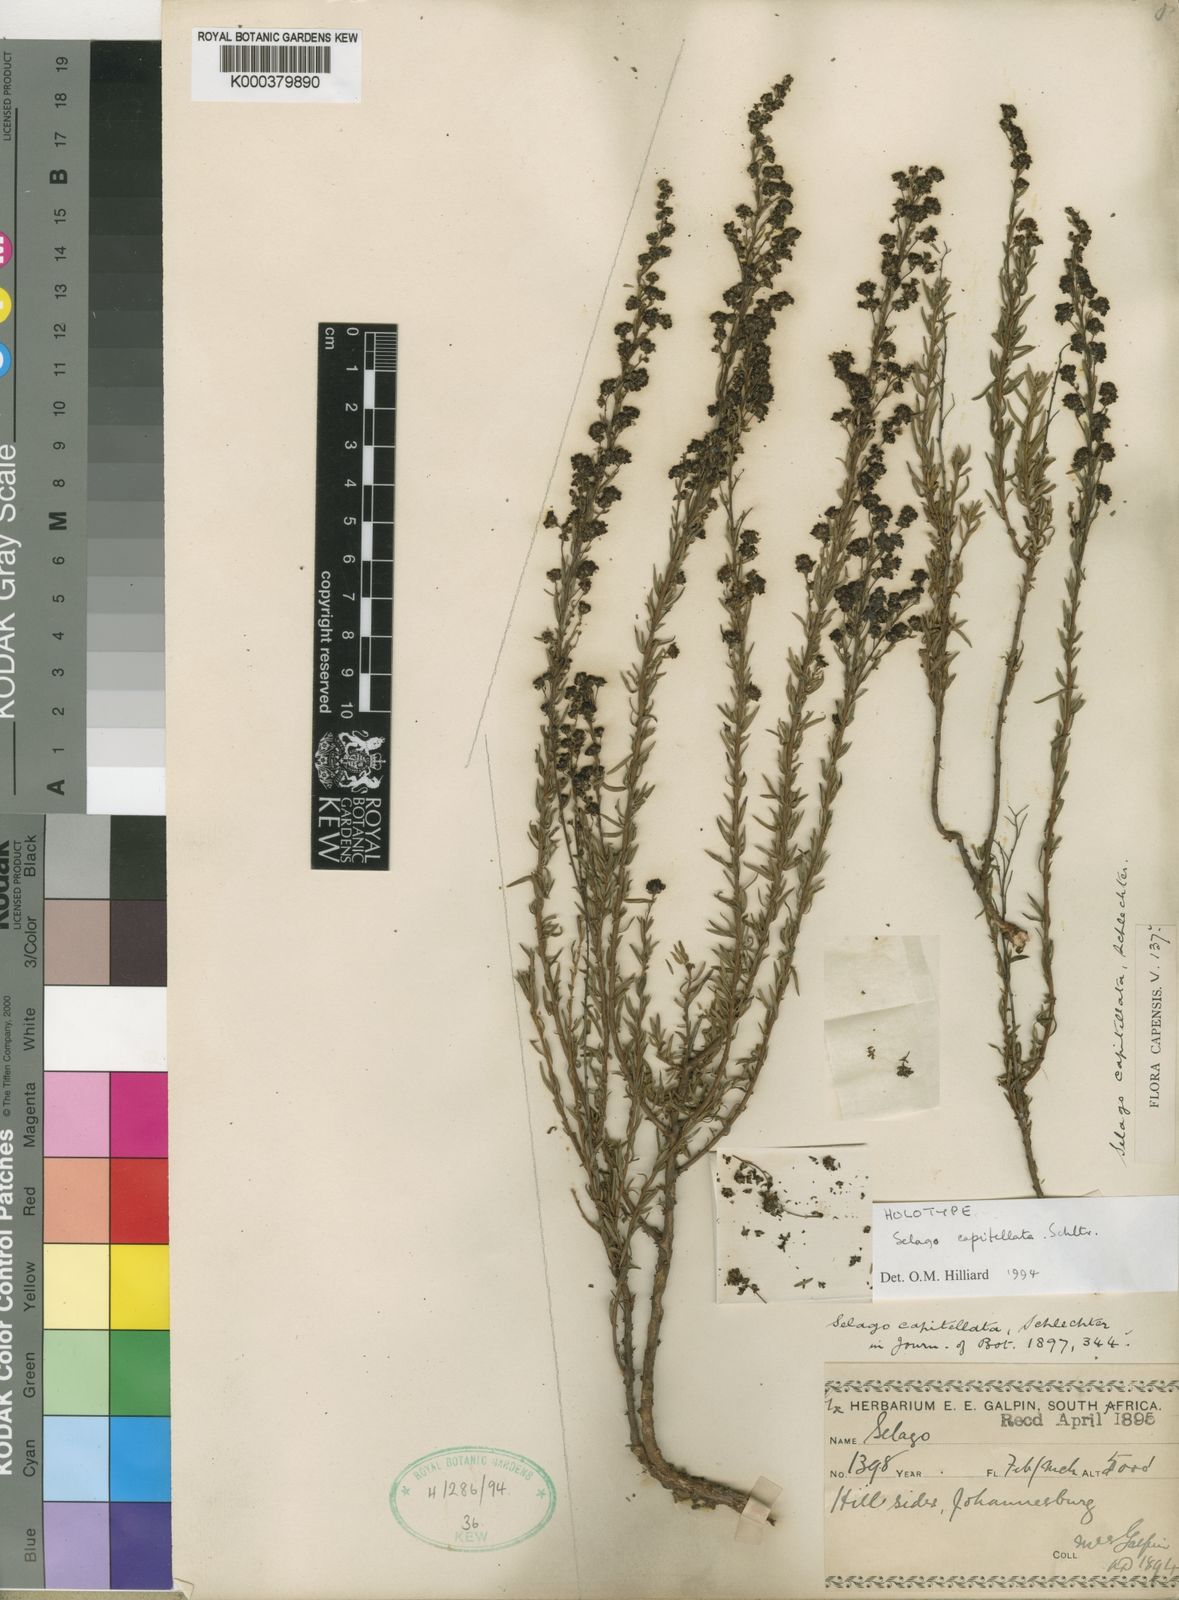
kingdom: Plantae
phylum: Tracheophyta
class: Magnoliopsida
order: Lamiales
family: Scrophulariaceae
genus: Selago
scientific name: Selago capitellata
